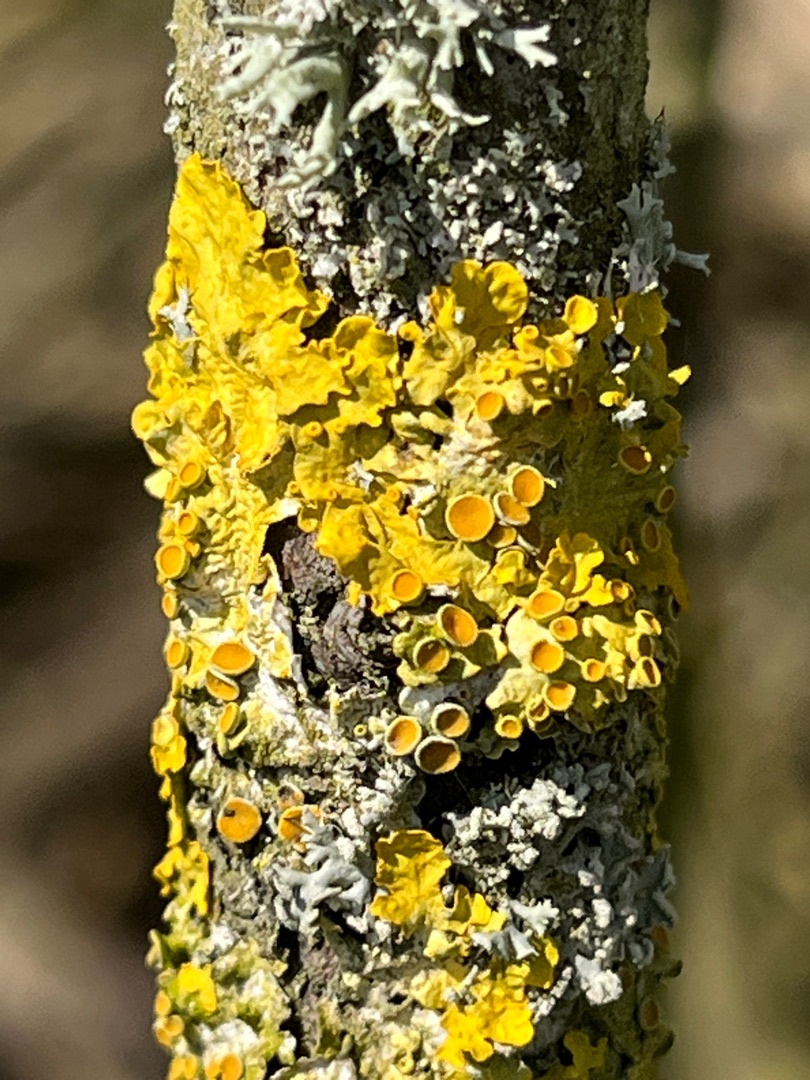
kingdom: Fungi
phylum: Ascomycota
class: Lecanoromycetes
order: Teloschistales
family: Teloschistaceae
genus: Xanthoria
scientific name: Xanthoria parietina
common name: Almindelig væggelav
